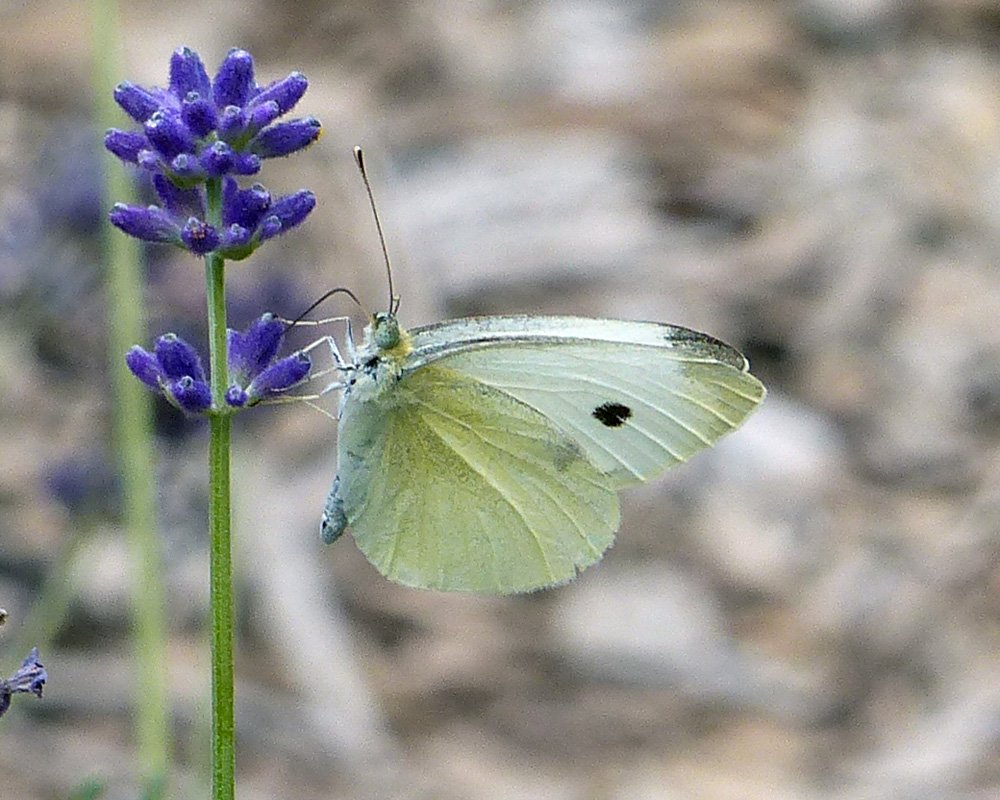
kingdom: Animalia
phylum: Arthropoda
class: Insecta
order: Lepidoptera
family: Pieridae
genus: Pieris
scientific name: Pieris rapae
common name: Cabbage White
